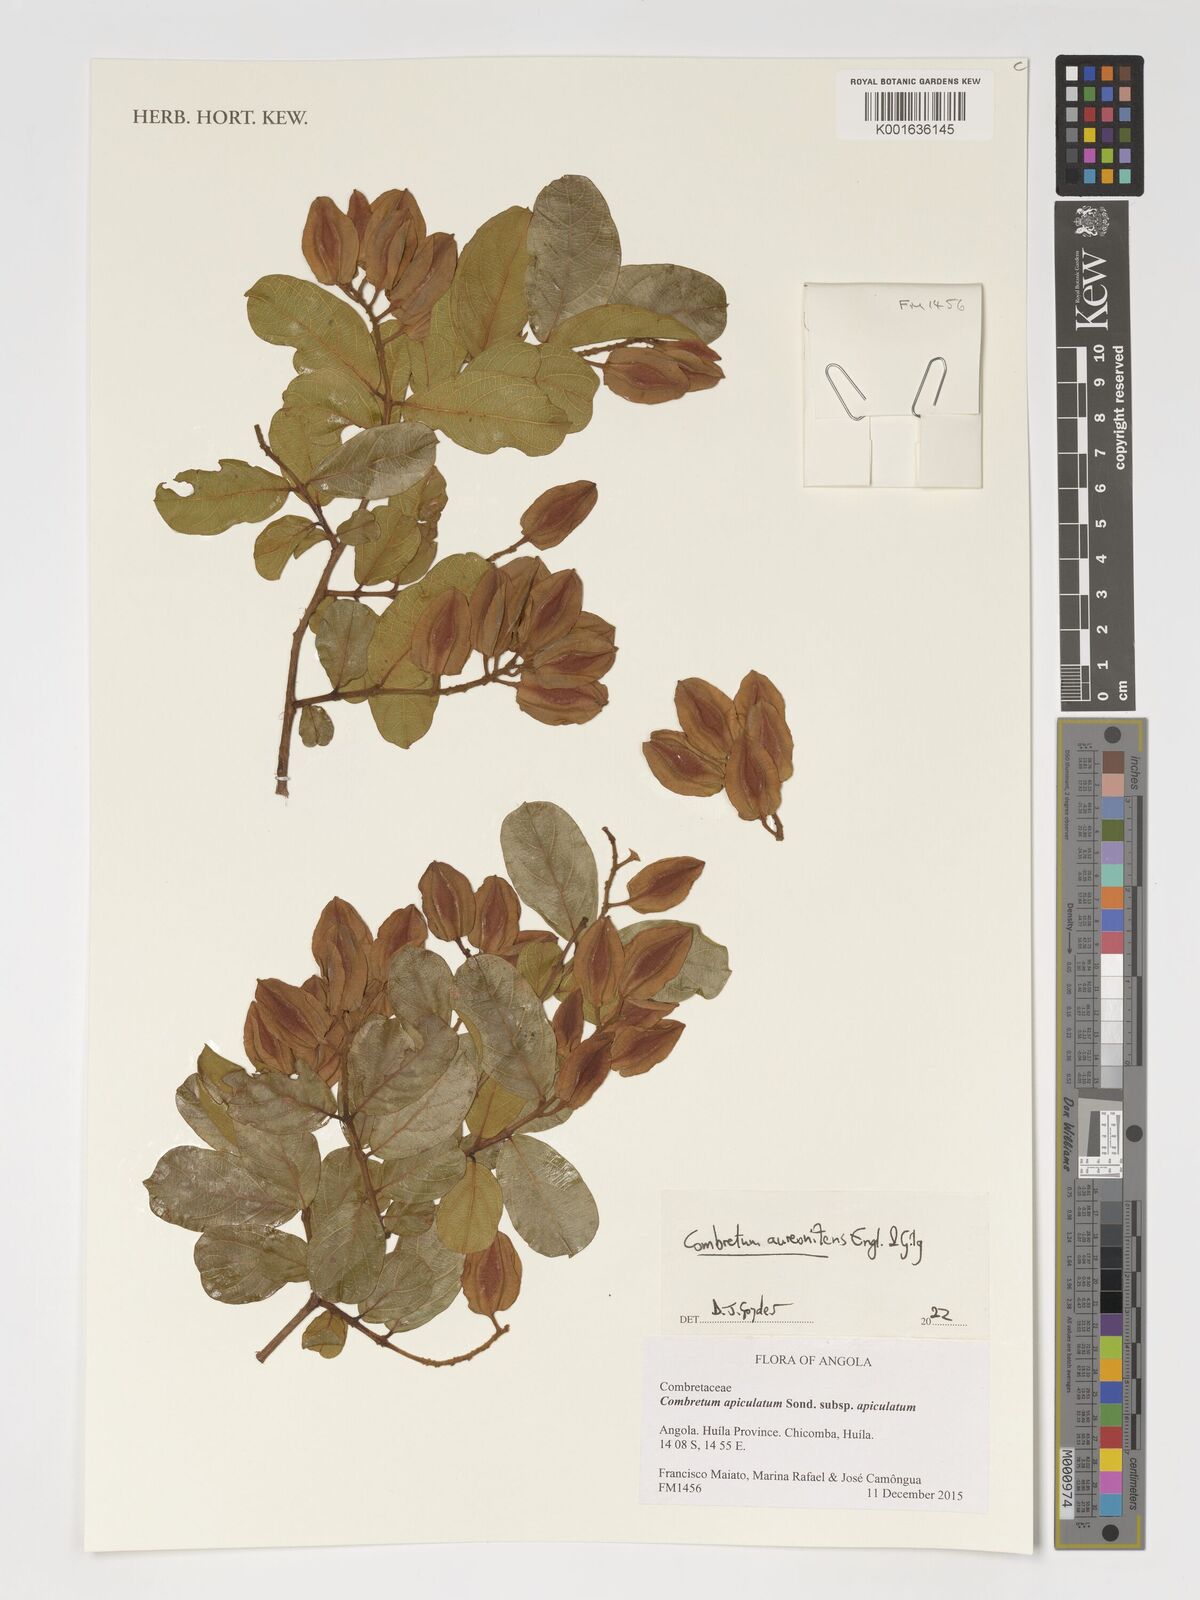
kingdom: Plantae
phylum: Tracheophyta
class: Magnoliopsida
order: Myrtales
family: Combretaceae
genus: Combretum
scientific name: Combretum aureonitens
